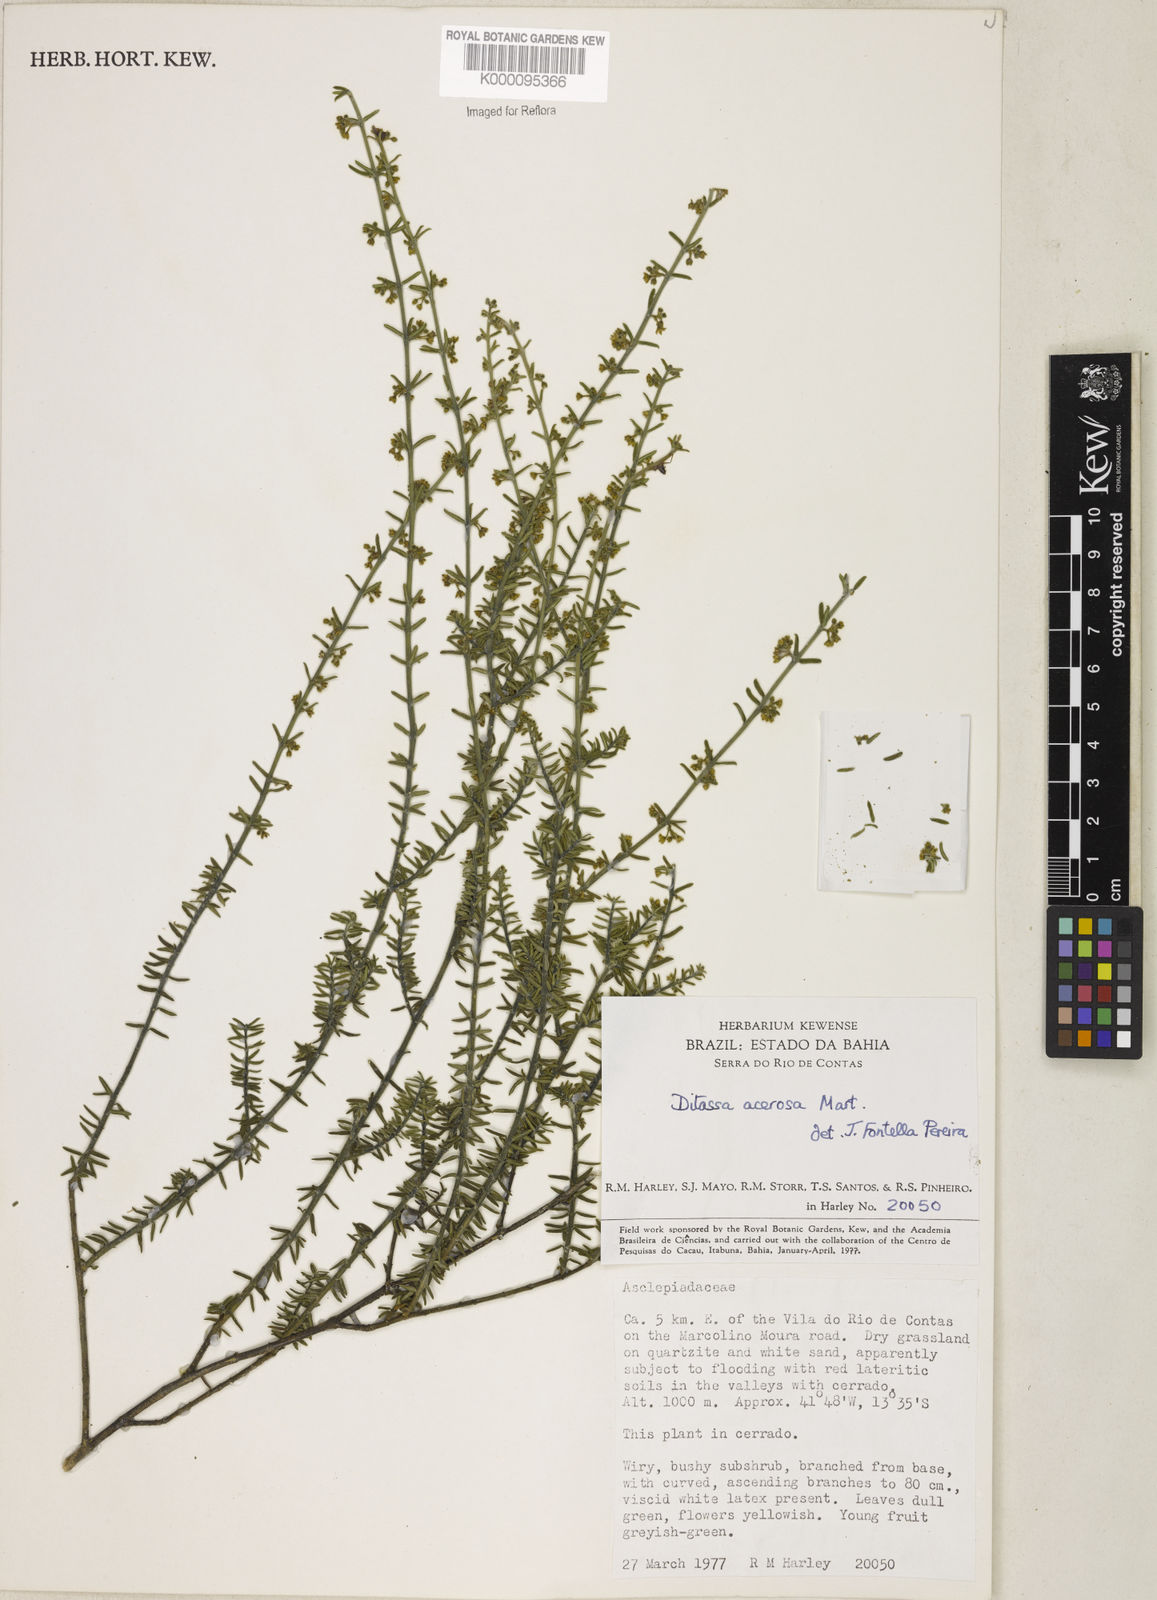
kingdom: Plantae
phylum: Tracheophyta
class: Magnoliopsida
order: Gentianales
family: Apocynaceae
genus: Minaria
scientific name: Minaria acerosa
